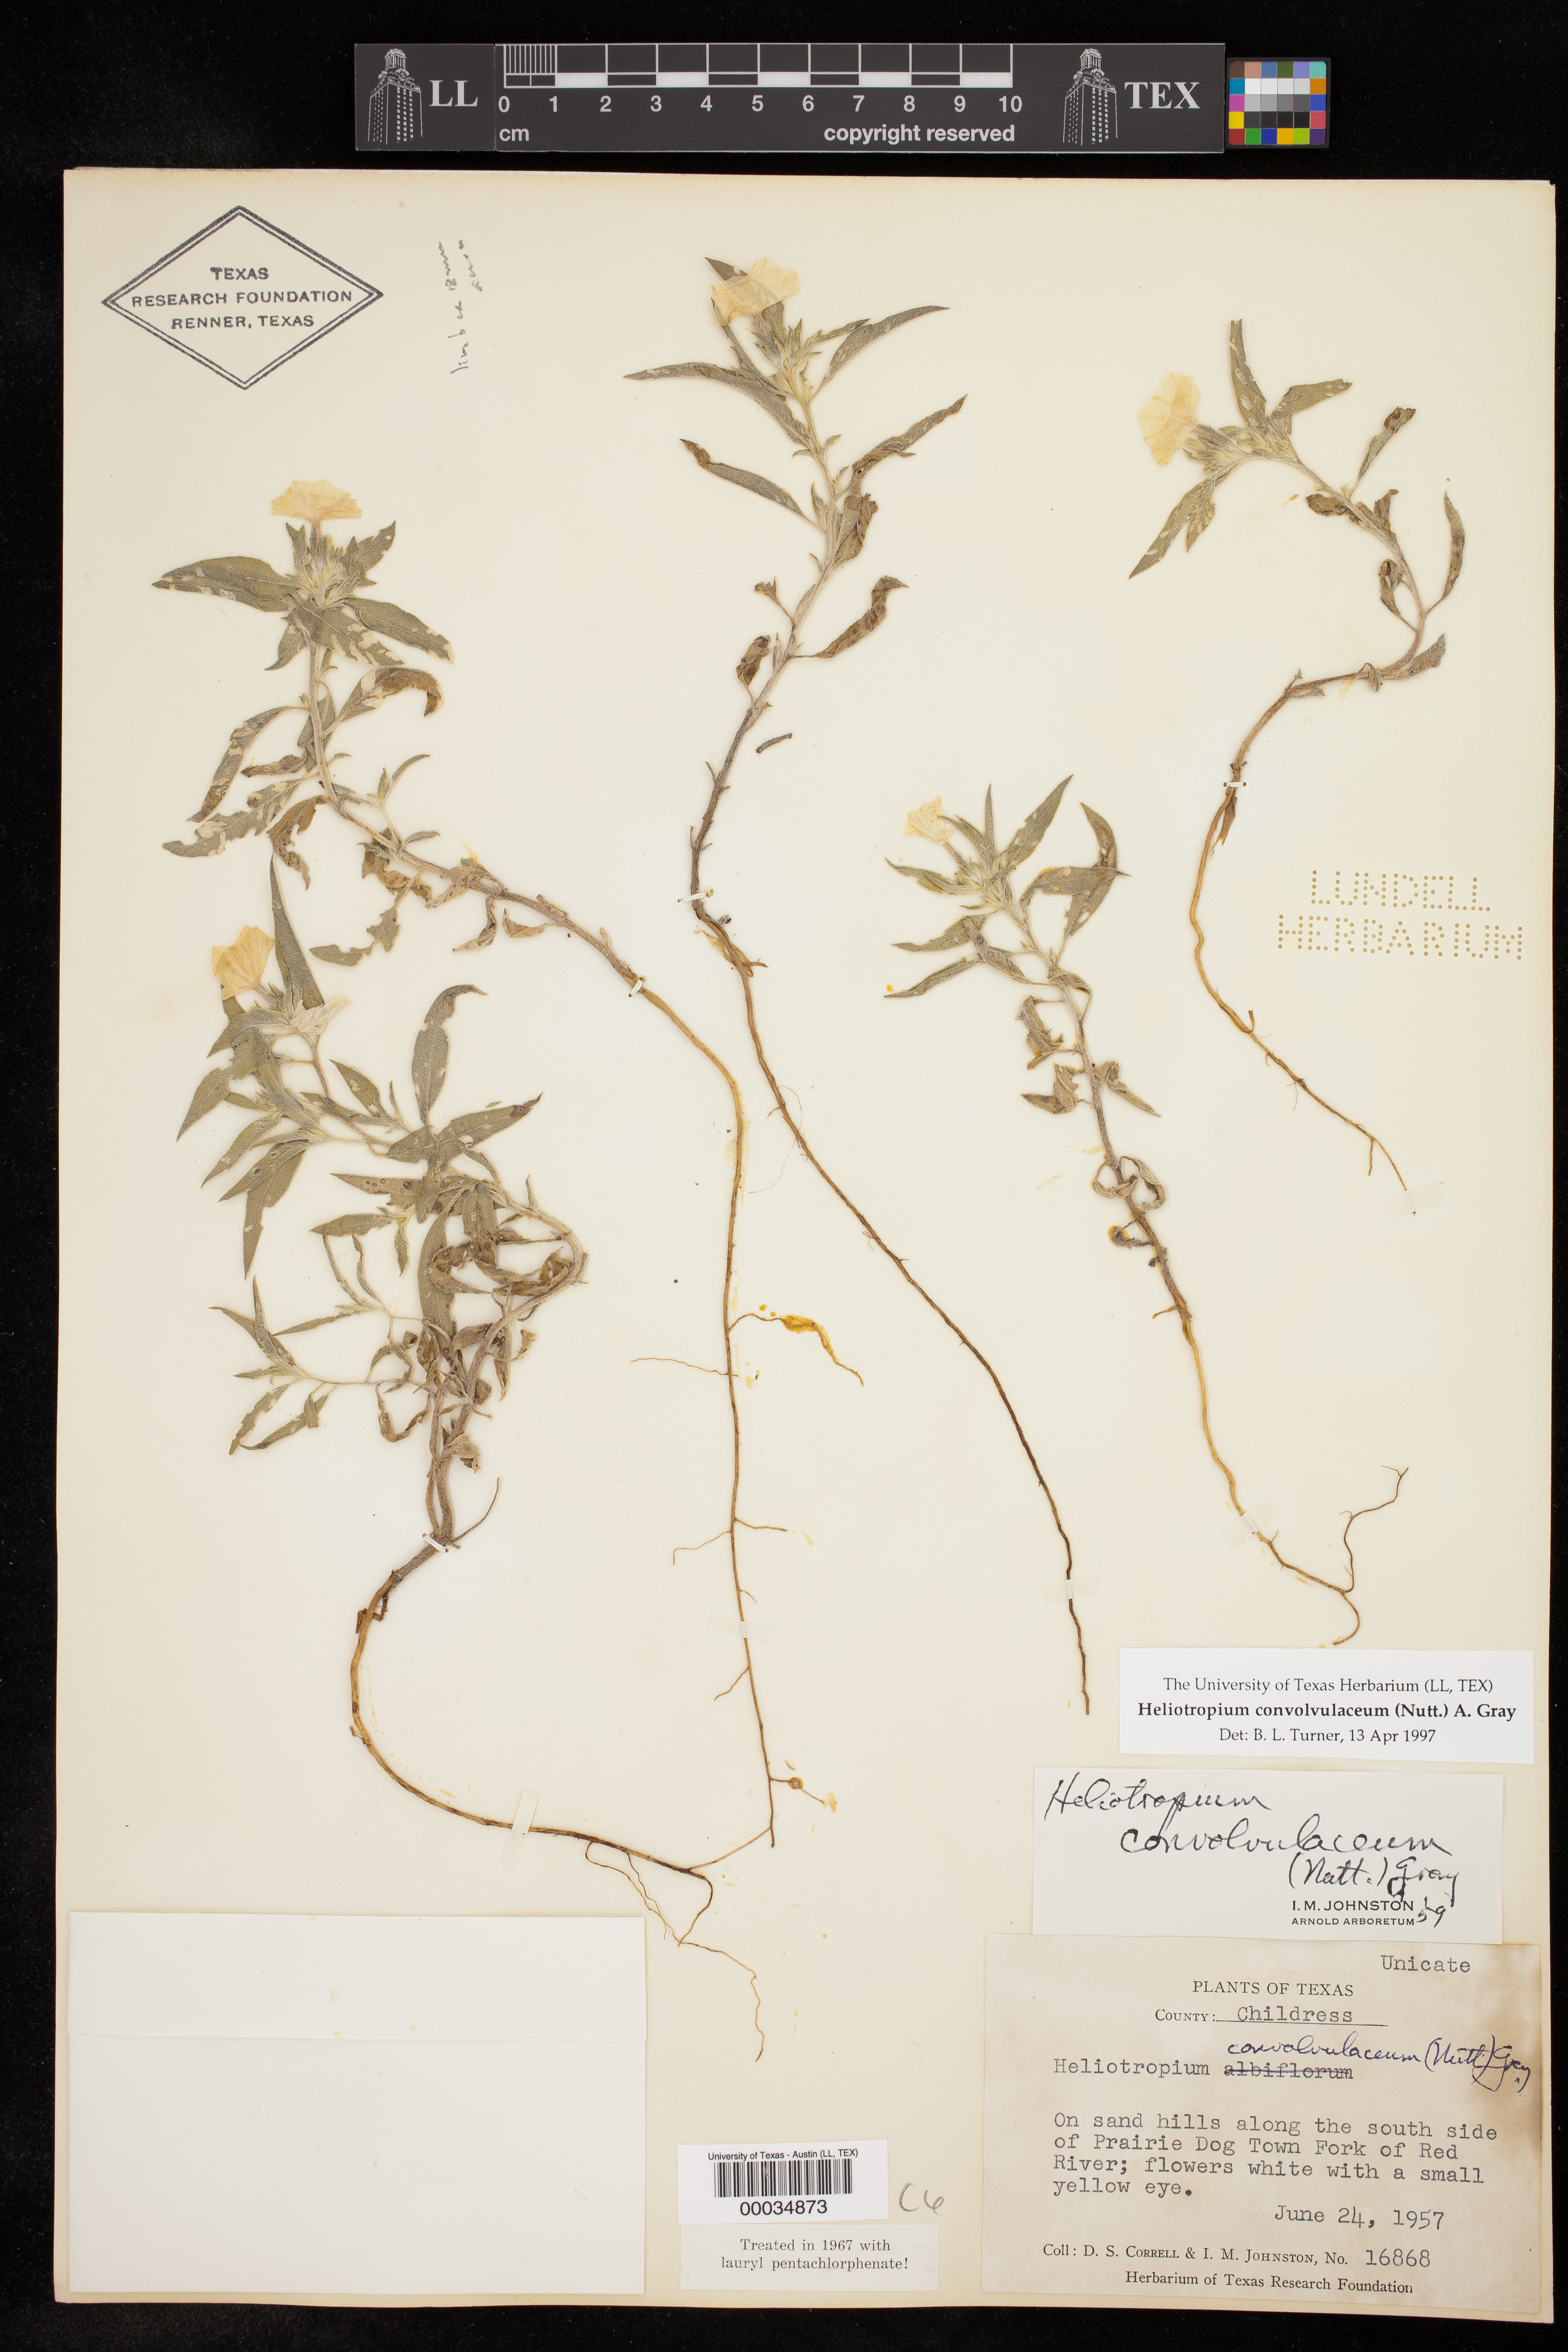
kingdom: Plantae
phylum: Tracheophyta
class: Magnoliopsida
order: Boraginales
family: Heliotropiaceae
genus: Euploca
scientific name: Euploca convolvulacea
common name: Bindweed heliotrope
